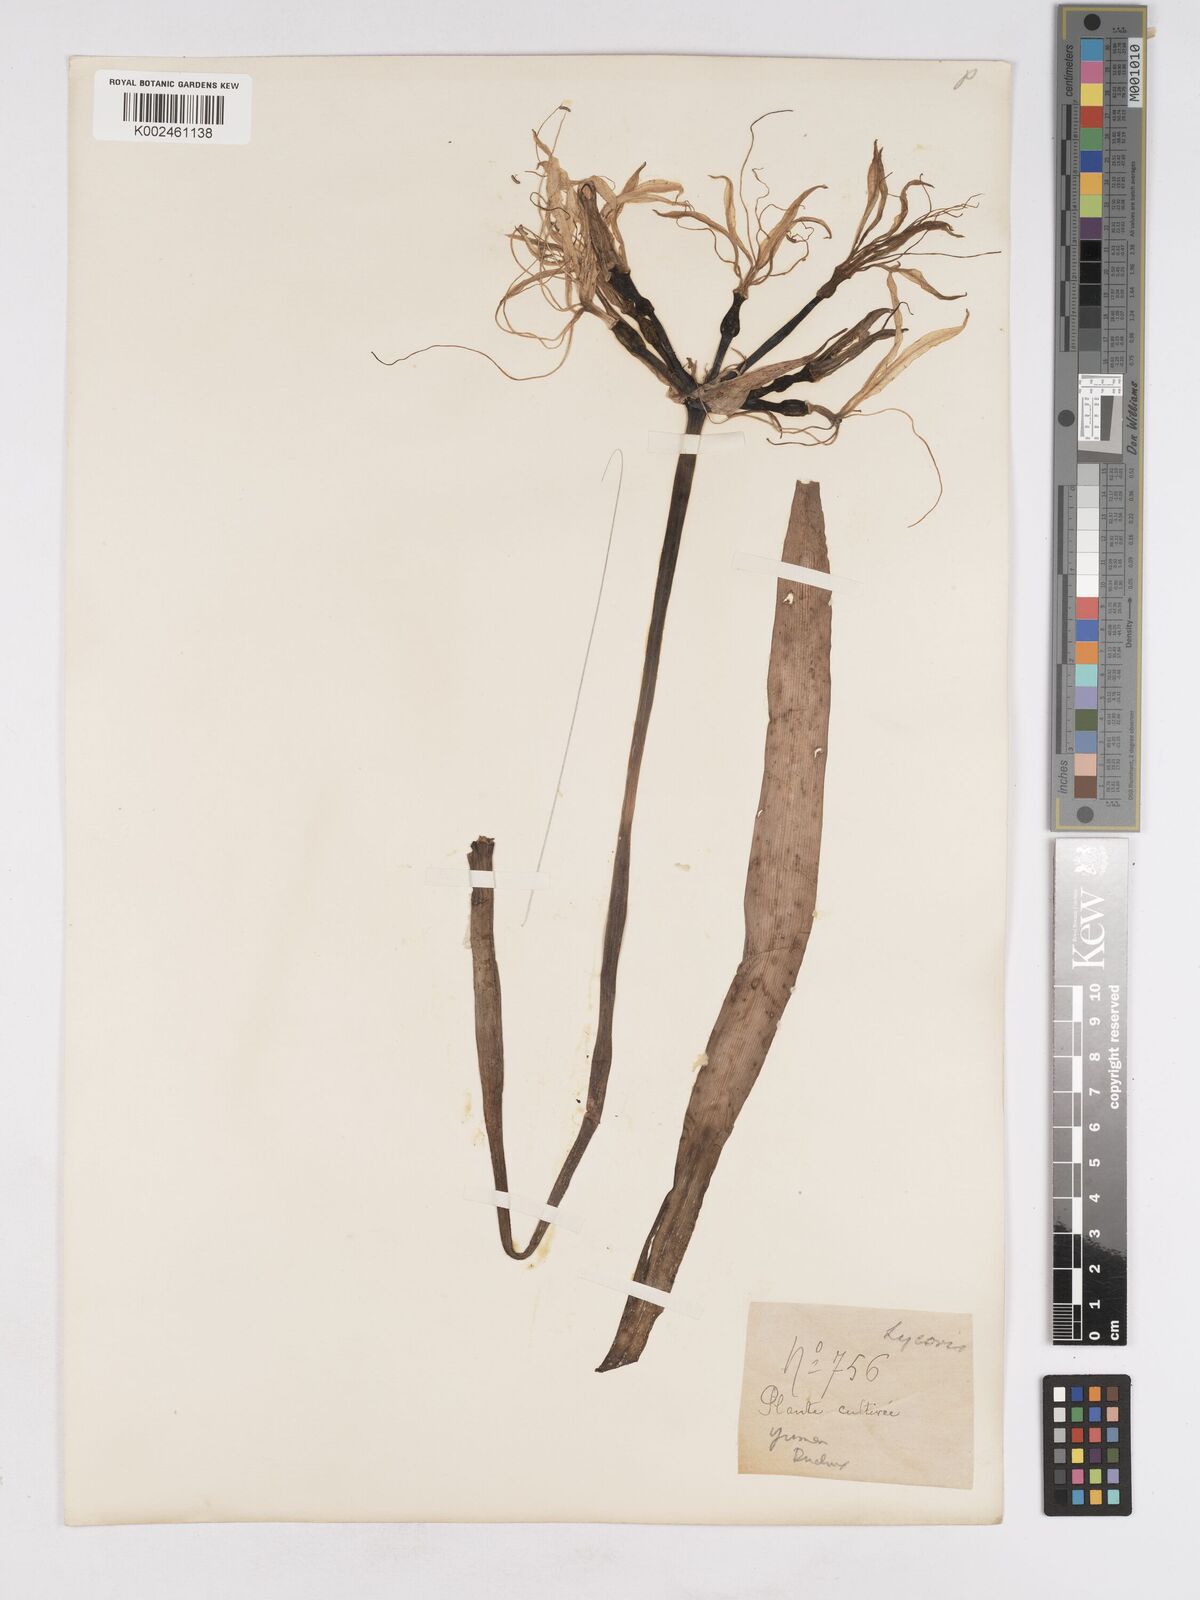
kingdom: Plantae
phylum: Tracheophyta
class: Liliopsida
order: Asparagales
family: Amaryllidaceae
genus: Lycoris
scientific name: Lycoris aurea
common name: Golden hurricane-lily
